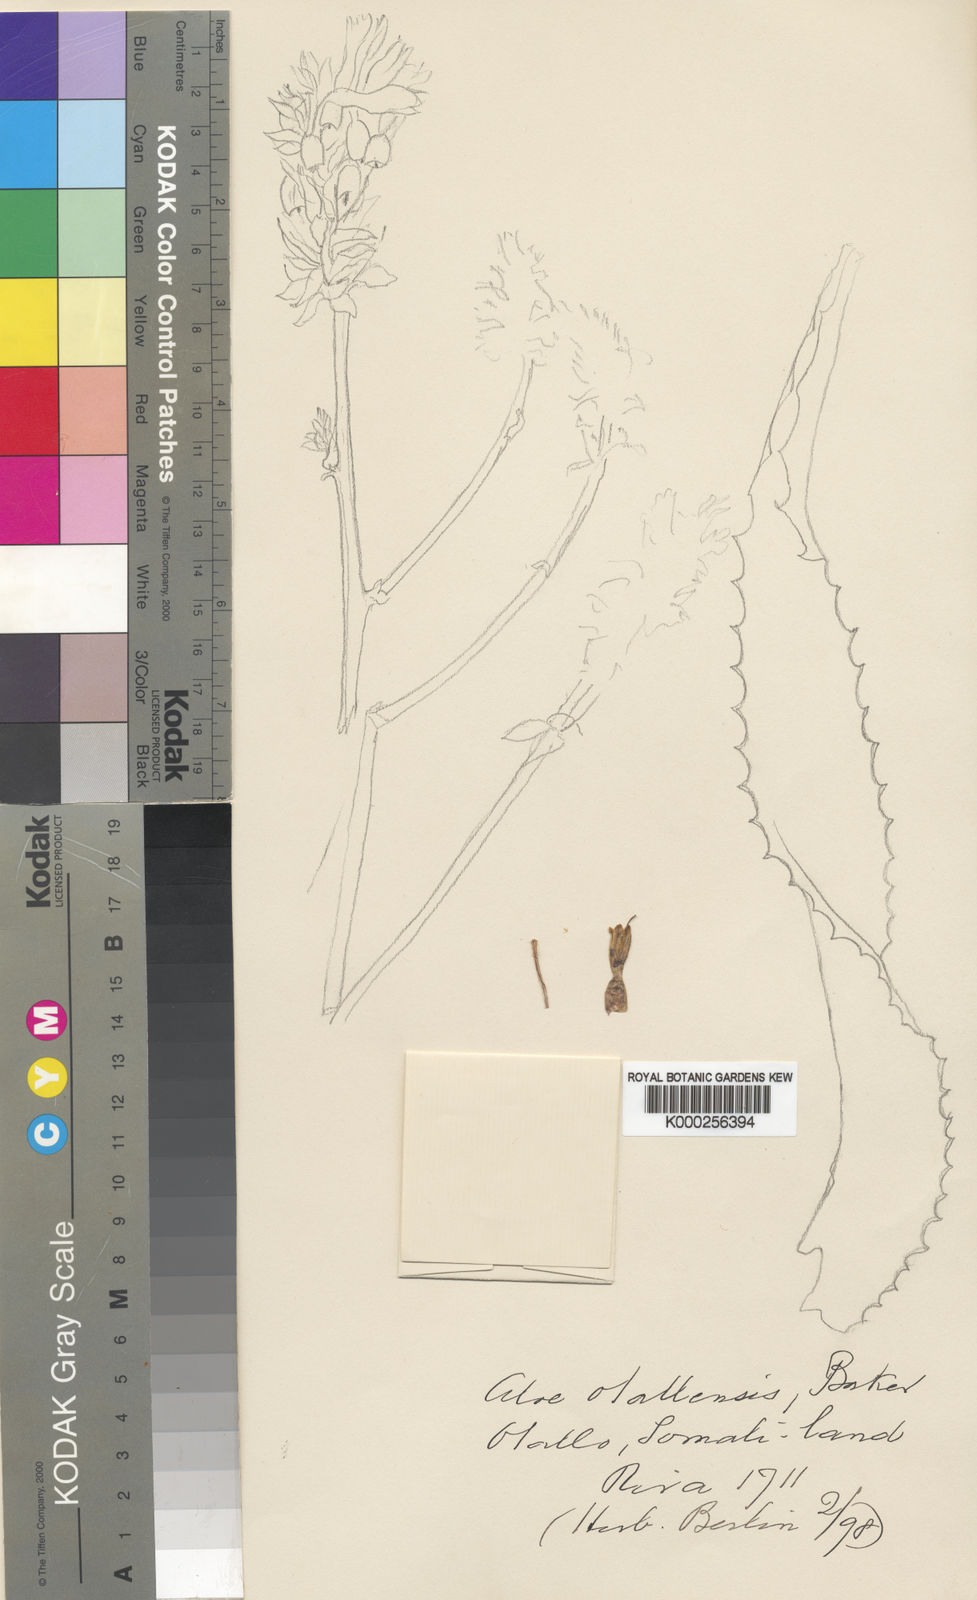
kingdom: Plantae
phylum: Tracheophyta
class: Liliopsida
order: Asparagales
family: Asphodelaceae
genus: Aloe
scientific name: Aloe otallensis
